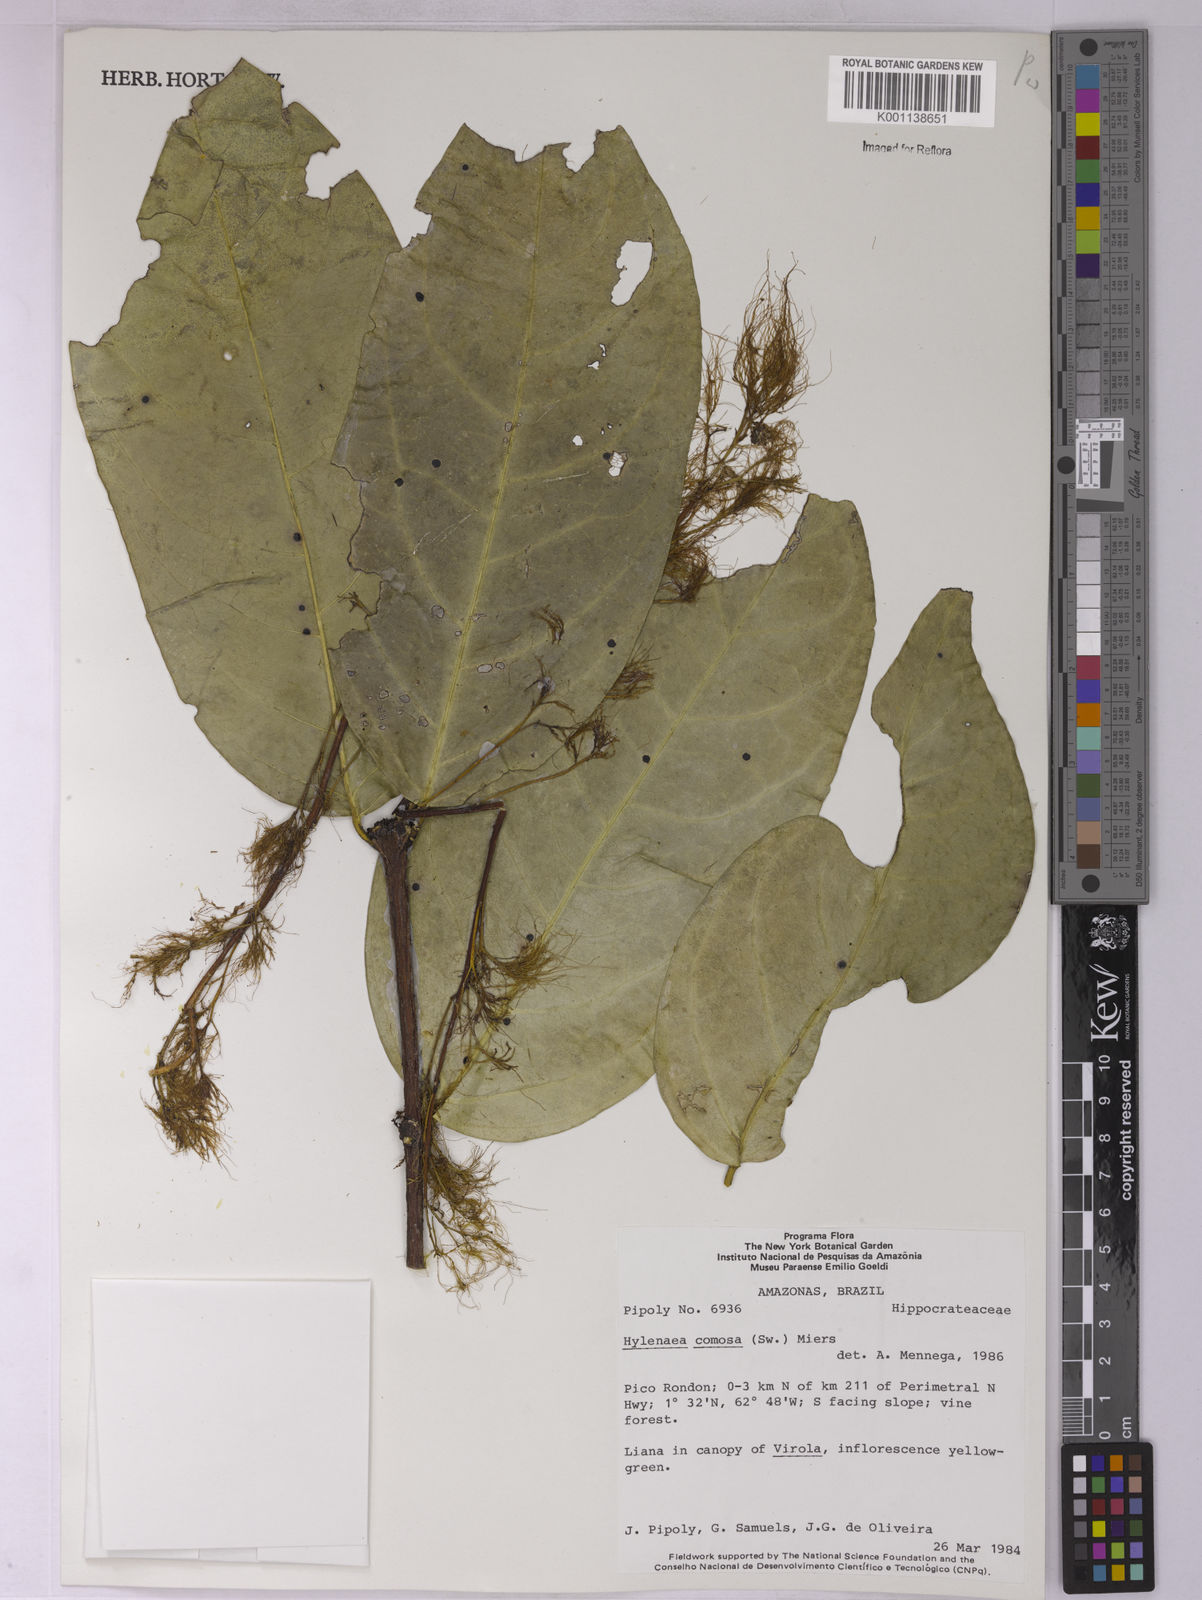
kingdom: Plantae
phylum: Tracheophyta
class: Magnoliopsida
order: Celastrales
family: Celastraceae
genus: Hylenaea
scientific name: Hylenaea comosa
